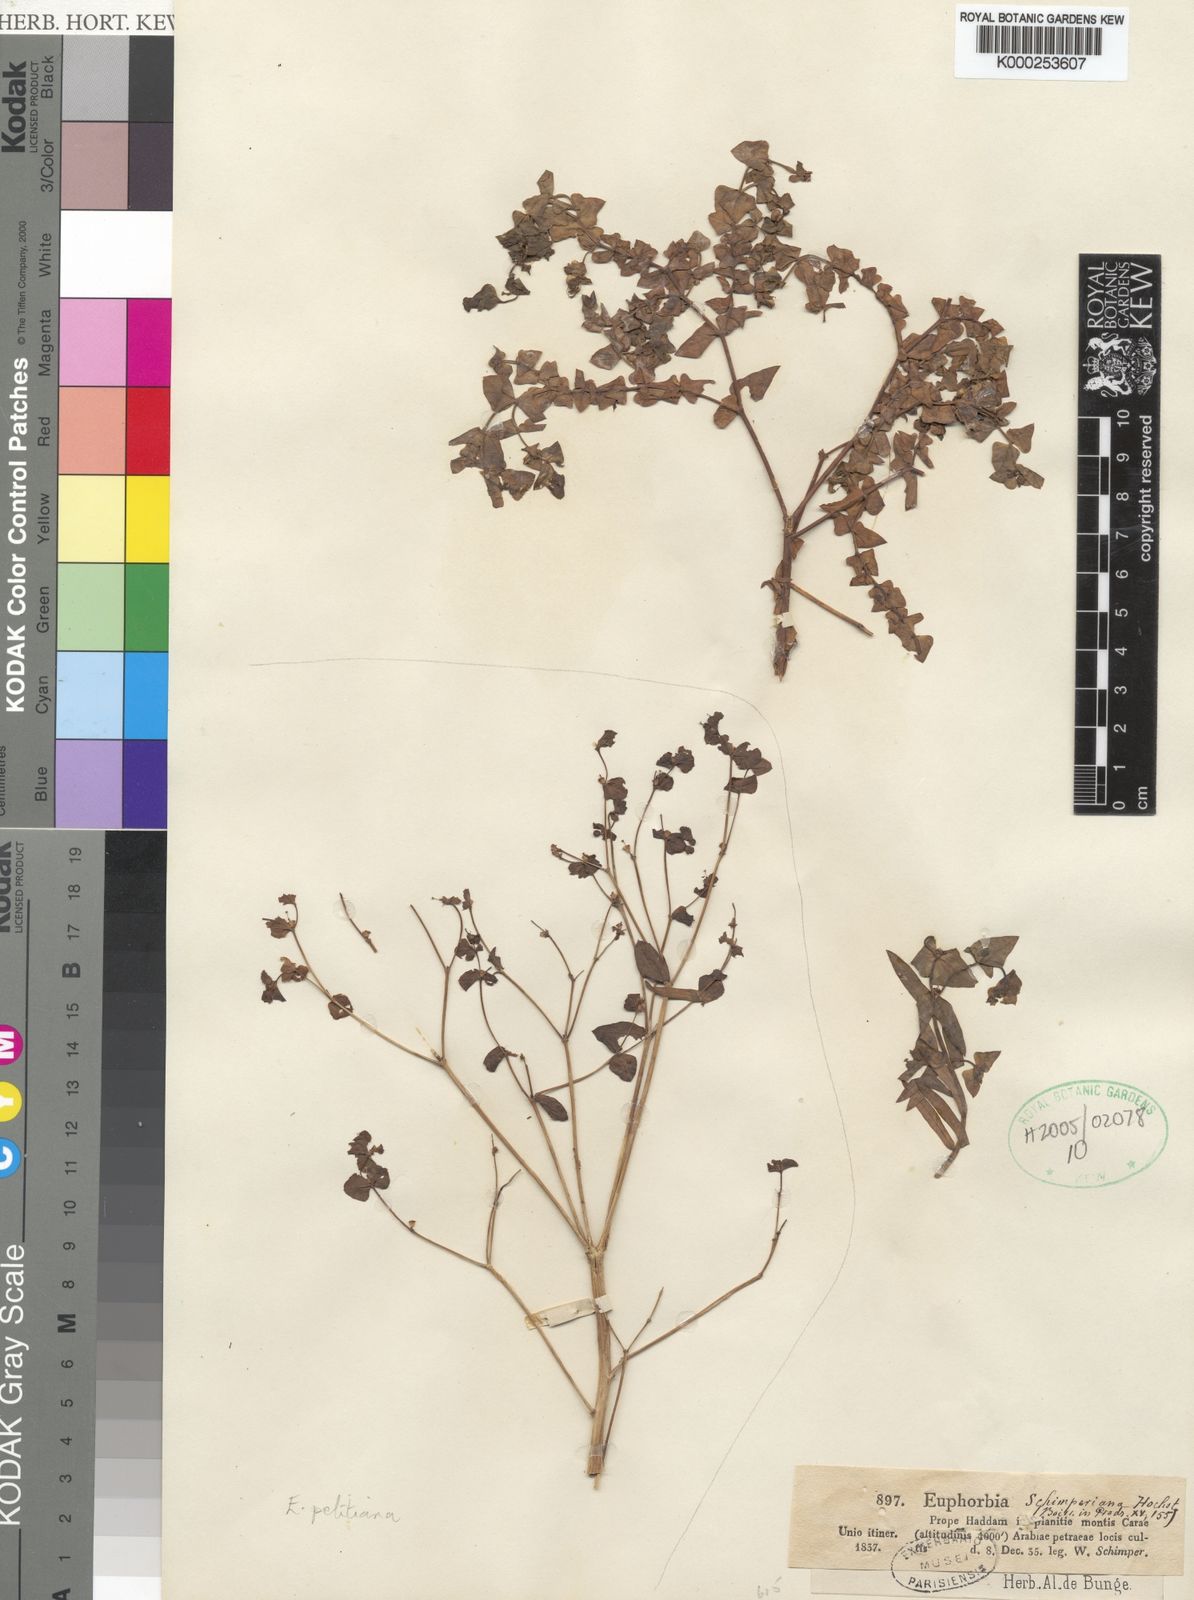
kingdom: Plantae
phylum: Tracheophyta
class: Magnoliopsida
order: Malpighiales
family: Euphorbiaceae
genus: Euphorbia
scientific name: Euphorbia schimperiana
